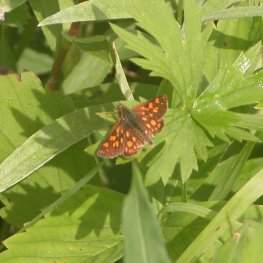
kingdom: Animalia
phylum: Arthropoda
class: Insecta
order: Lepidoptera
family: Hesperiidae
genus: Carterocephalus
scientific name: Carterocephalus palaemon
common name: Chequered Skipper
